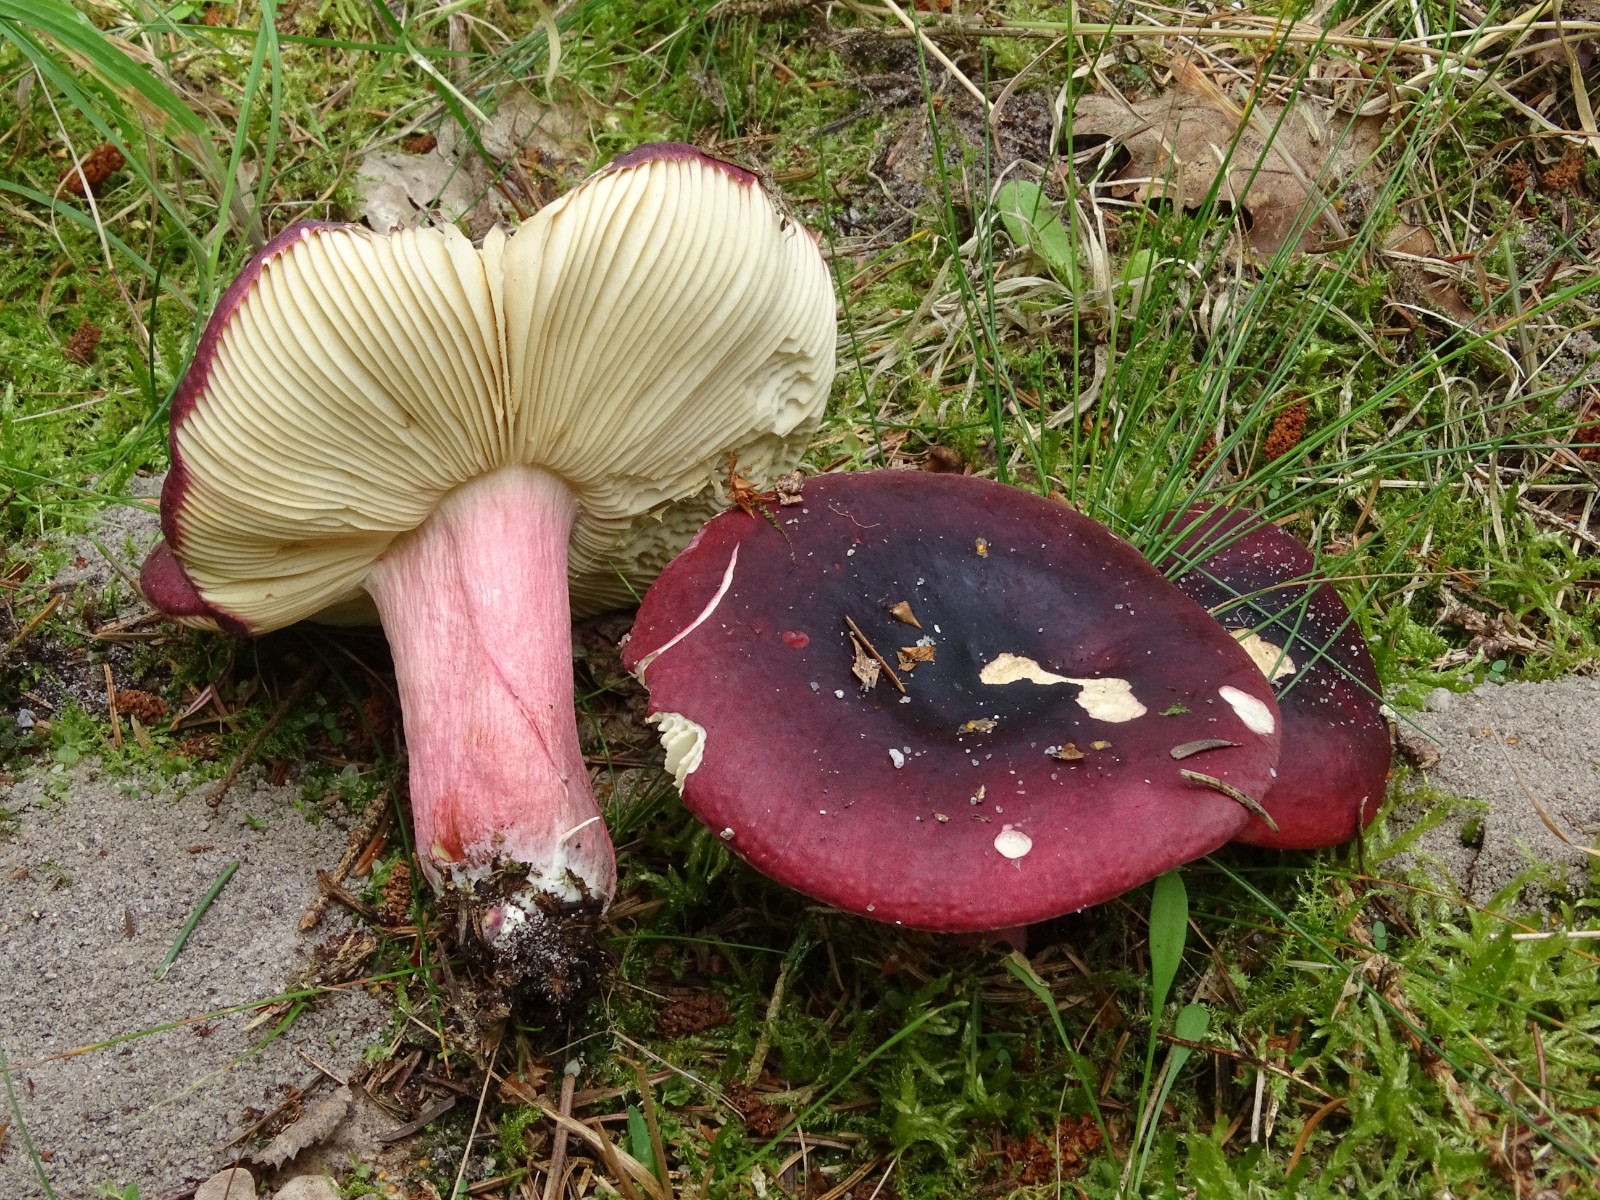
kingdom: Fungi
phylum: Basidiomycota
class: Agaricomycetes
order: Russulales
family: Russulaceae
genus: Russula
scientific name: Russula xerampelina
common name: hummer-skørhat
